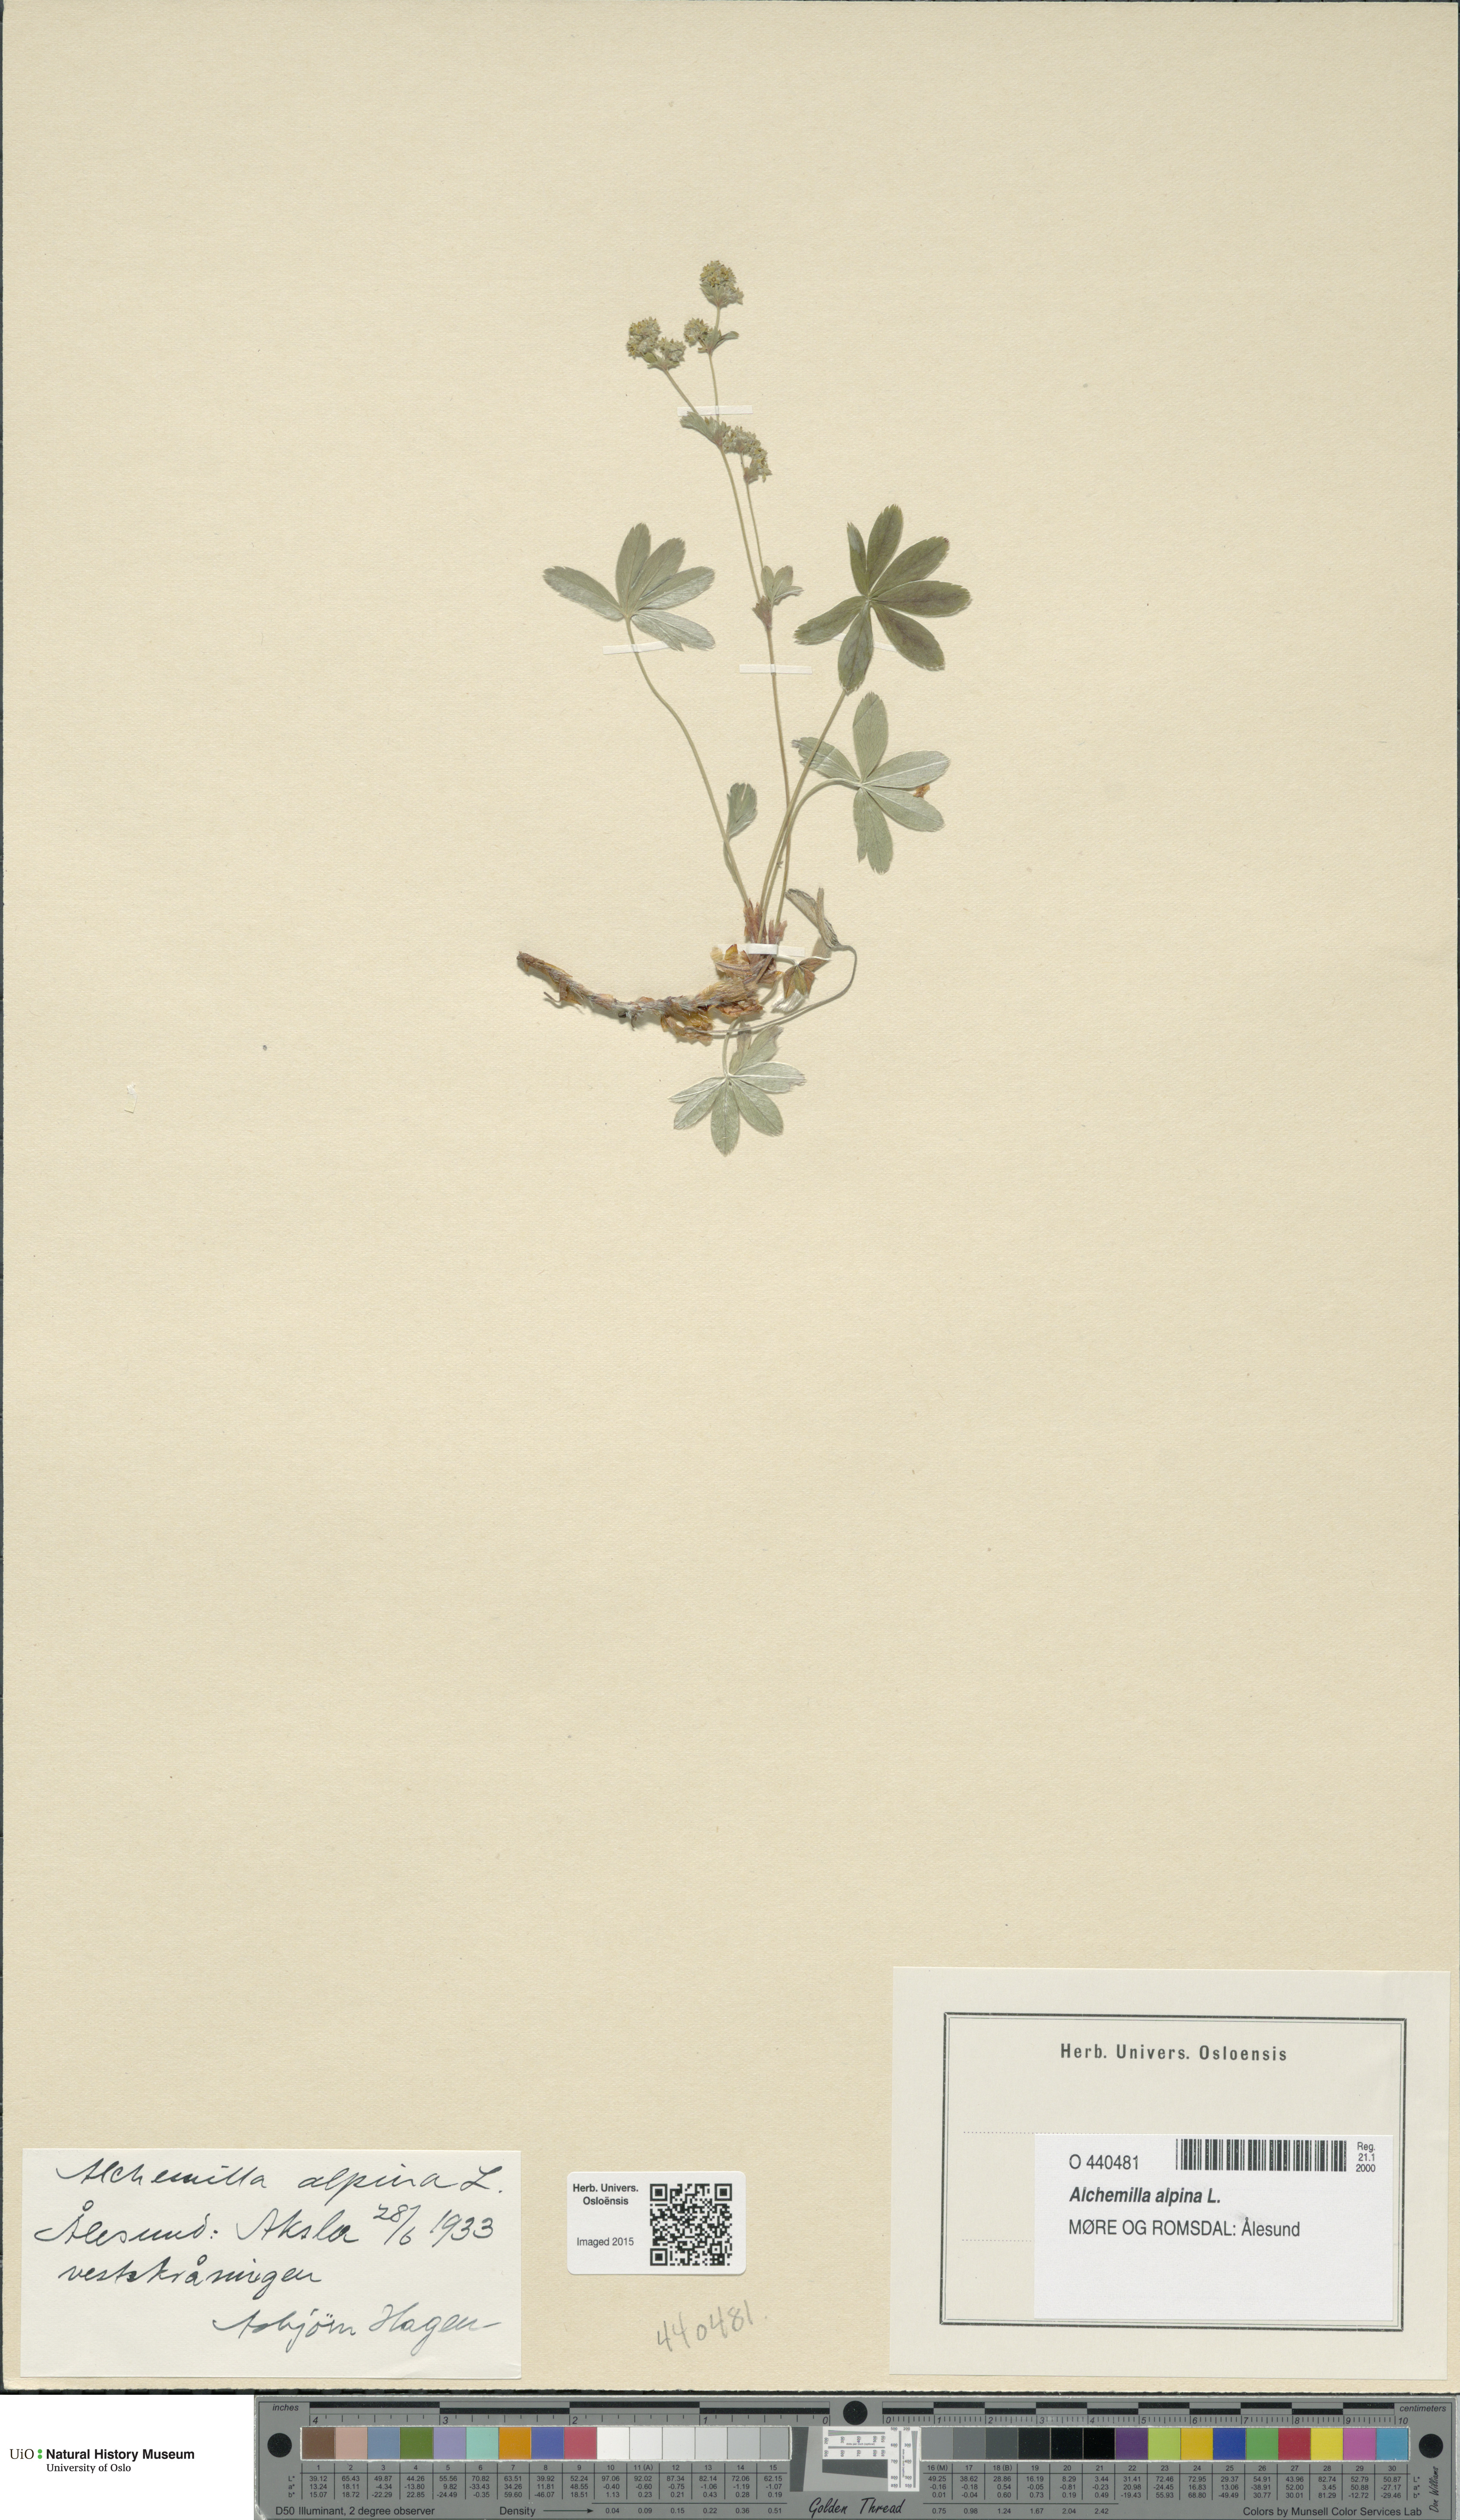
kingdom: Plantae
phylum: Tracheophyta
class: Magnoliopsida
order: Rosales
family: Rosaceae
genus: Alchemilla
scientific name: Alchemilla alpina
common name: Alpine lady's-mantle
